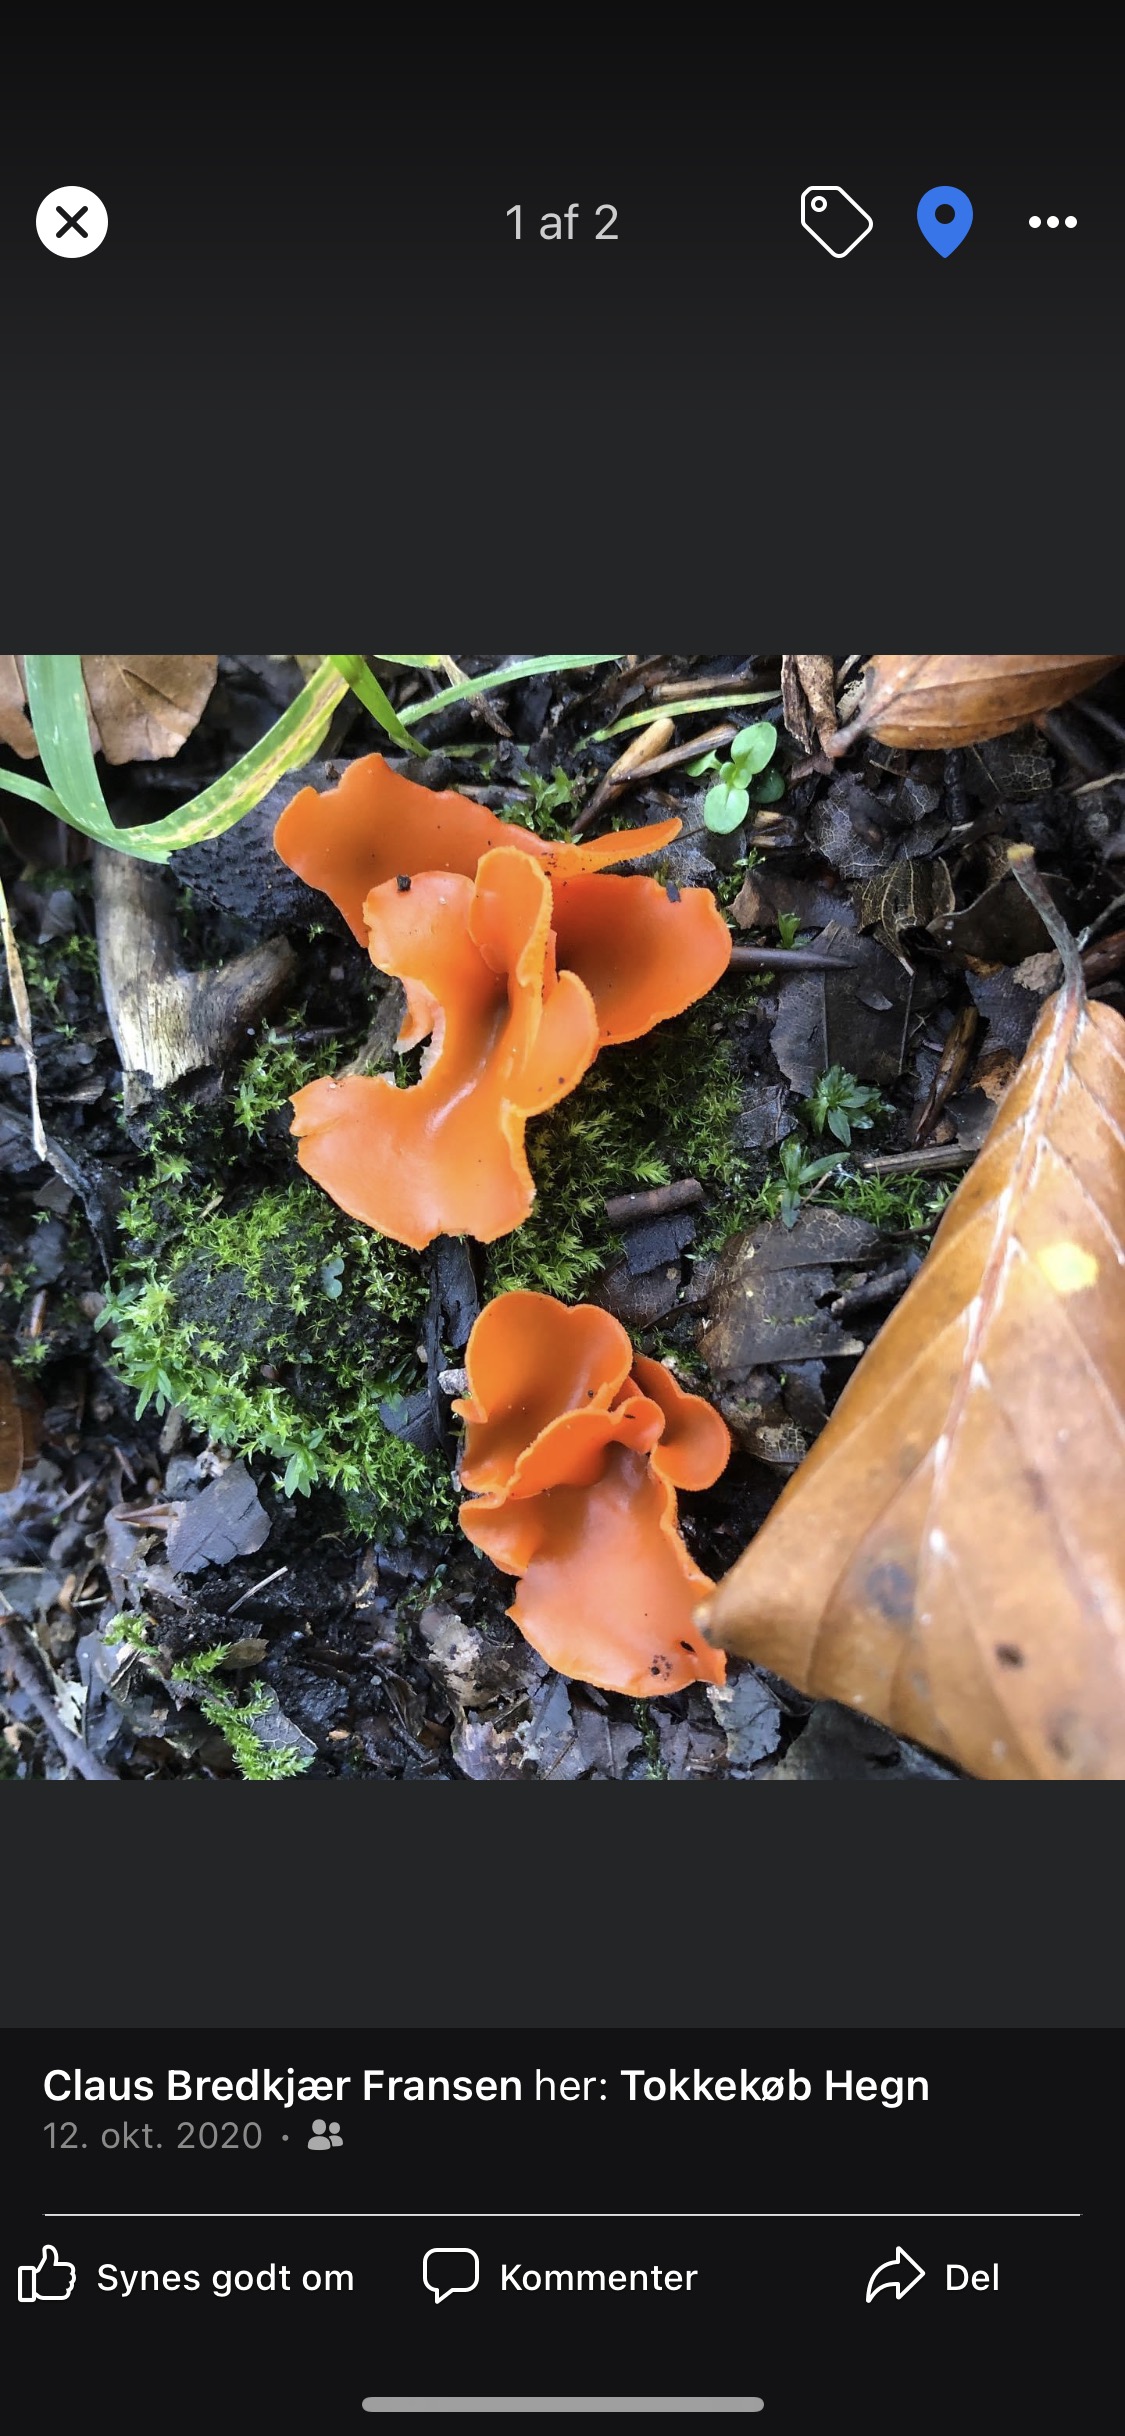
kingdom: Fungi
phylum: Ascomycota
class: Pezizomycetes
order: Pezizales
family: Pyronemataceae
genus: Aleuria
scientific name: Aleuria aurantia
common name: almindelig orangebæger
